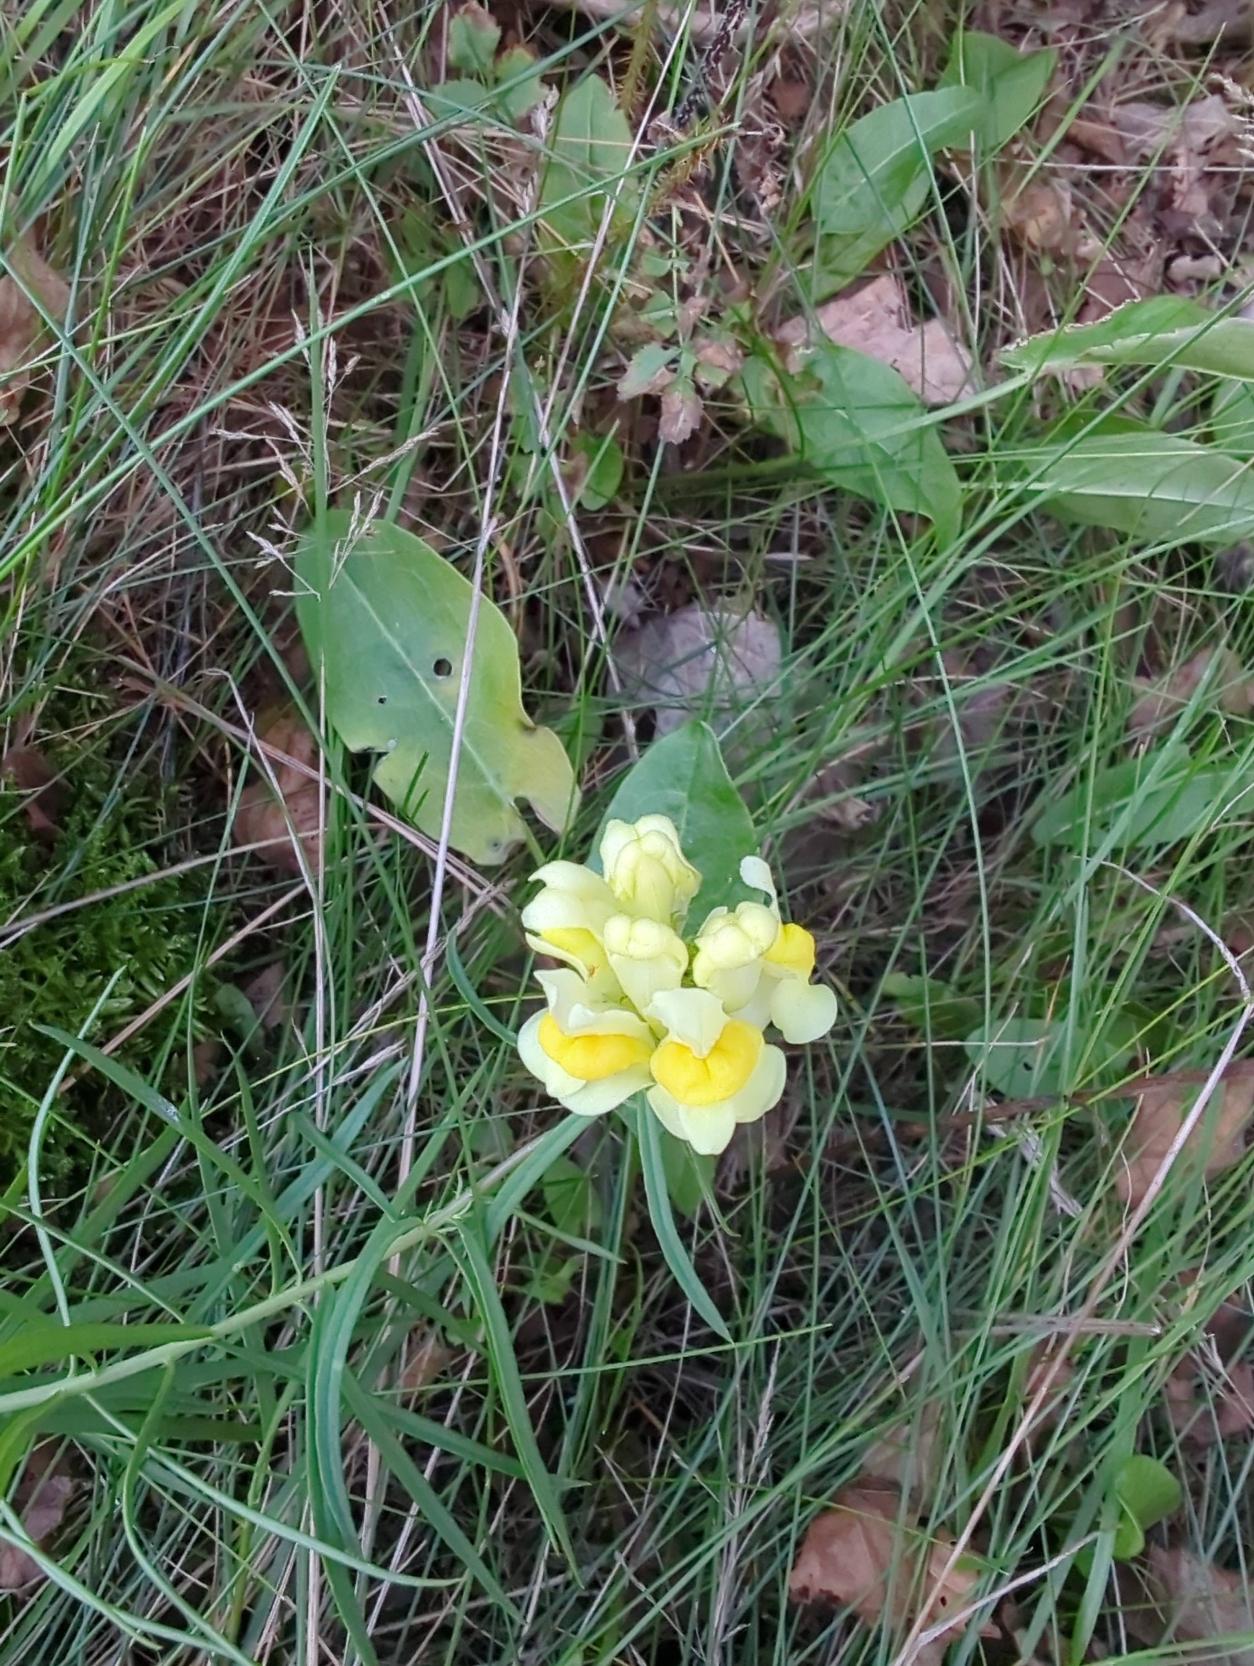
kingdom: Plantae
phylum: Tracheophyta
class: Magnoliopsida
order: Lamiales
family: Plantaginaceae
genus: Linaria
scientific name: Linaria vulgaris
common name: Almindelig torskemund
